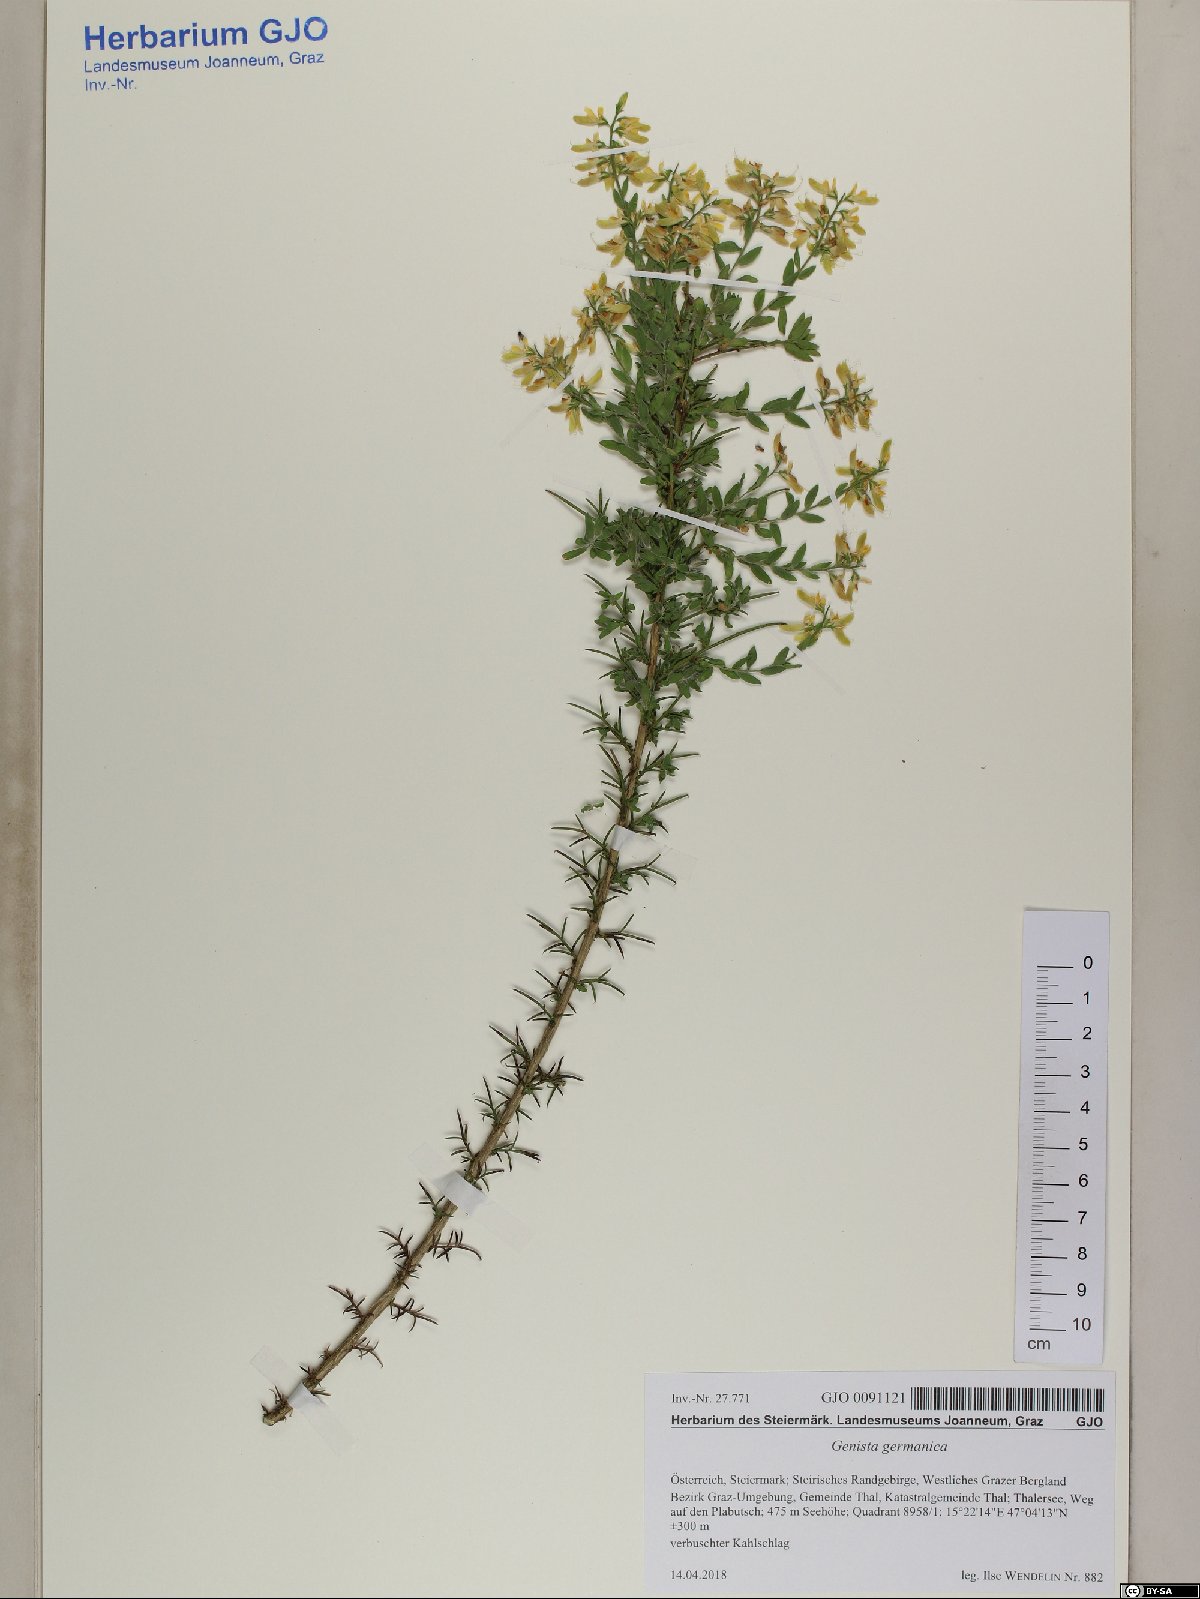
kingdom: Plantae
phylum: Tracheophyta
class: Magnoliopsida
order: Fabales
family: Fabaceae
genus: Genista
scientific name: Genista germanica
